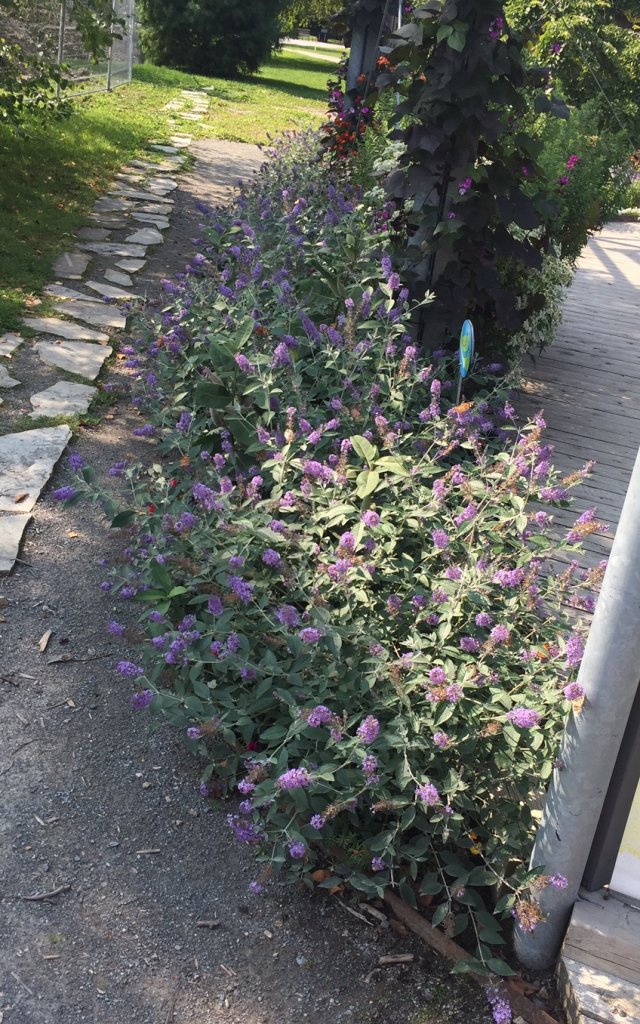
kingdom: Animalia
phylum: Arthropoda
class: Insecta
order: Lepidoptera
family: Nymphalidae
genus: Vanessa
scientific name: Vanessa cardui
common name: Painted Lady
